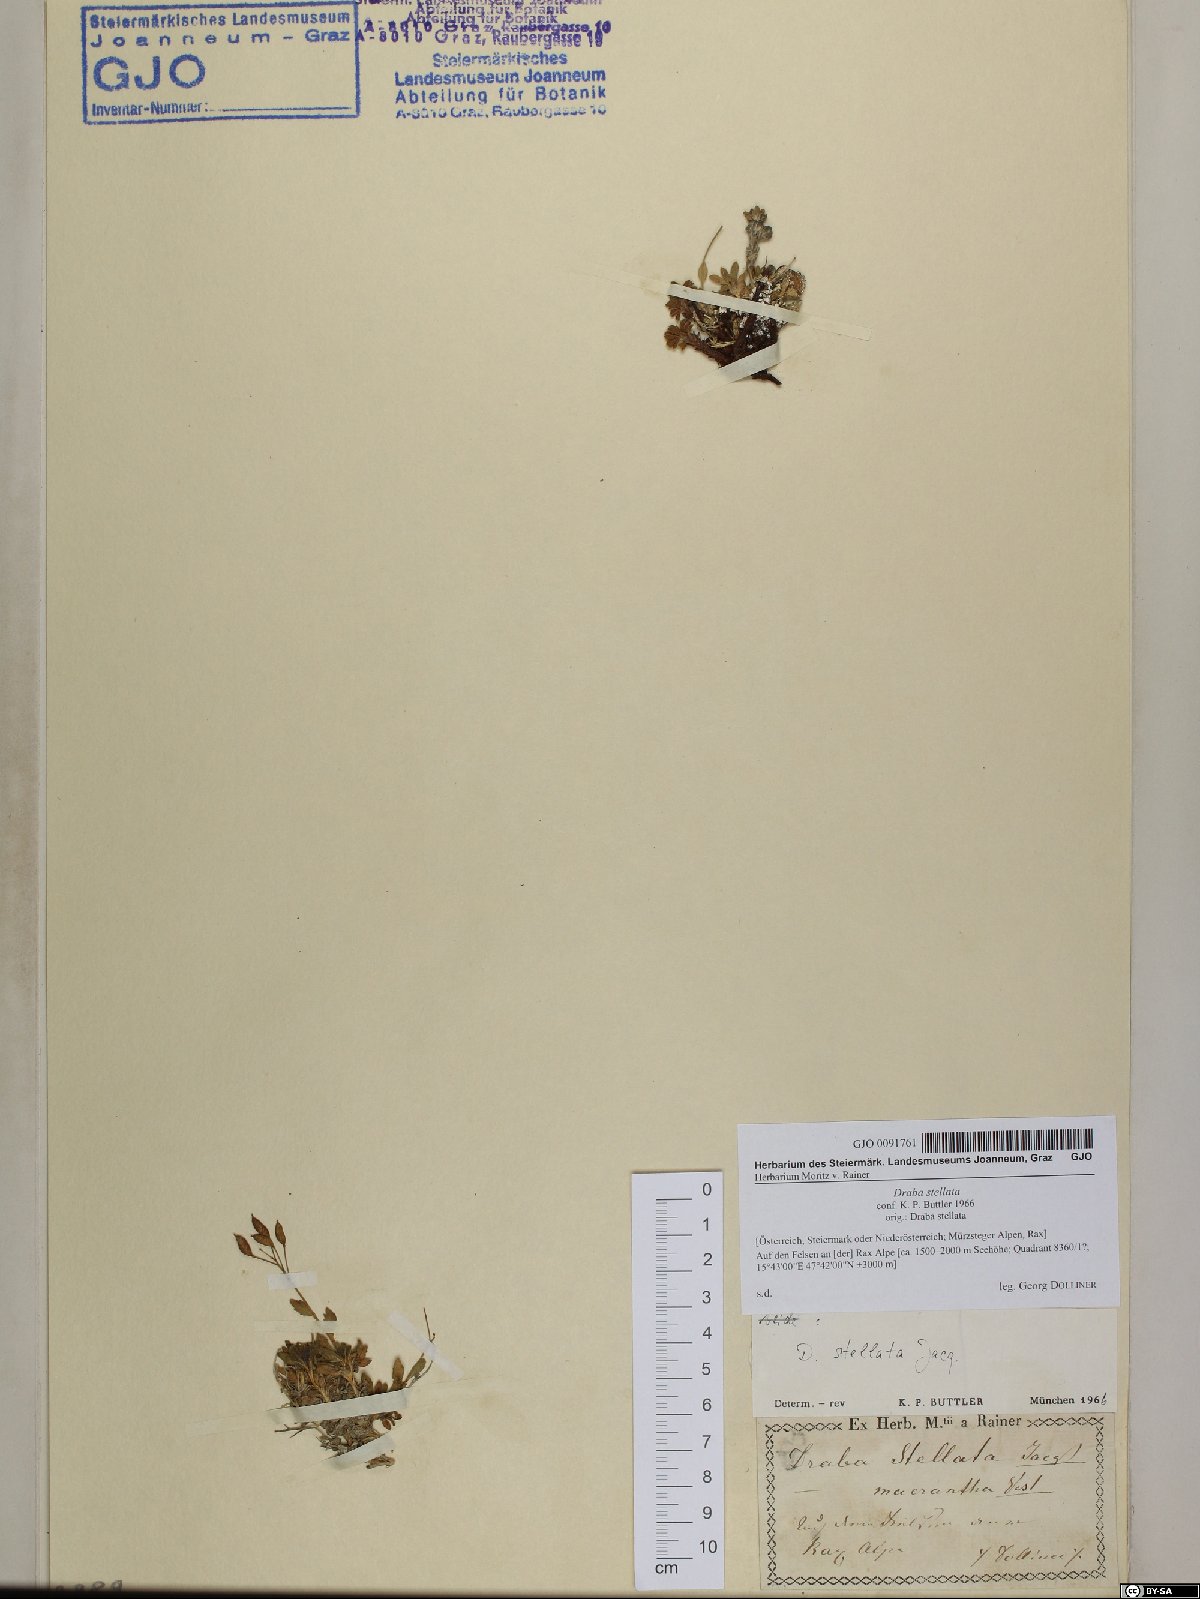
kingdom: Plantae
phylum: Tracheophyta
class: Magnoliopsida
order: Brassicales
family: Brassicaceae
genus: Draba
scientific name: Draba stellata
